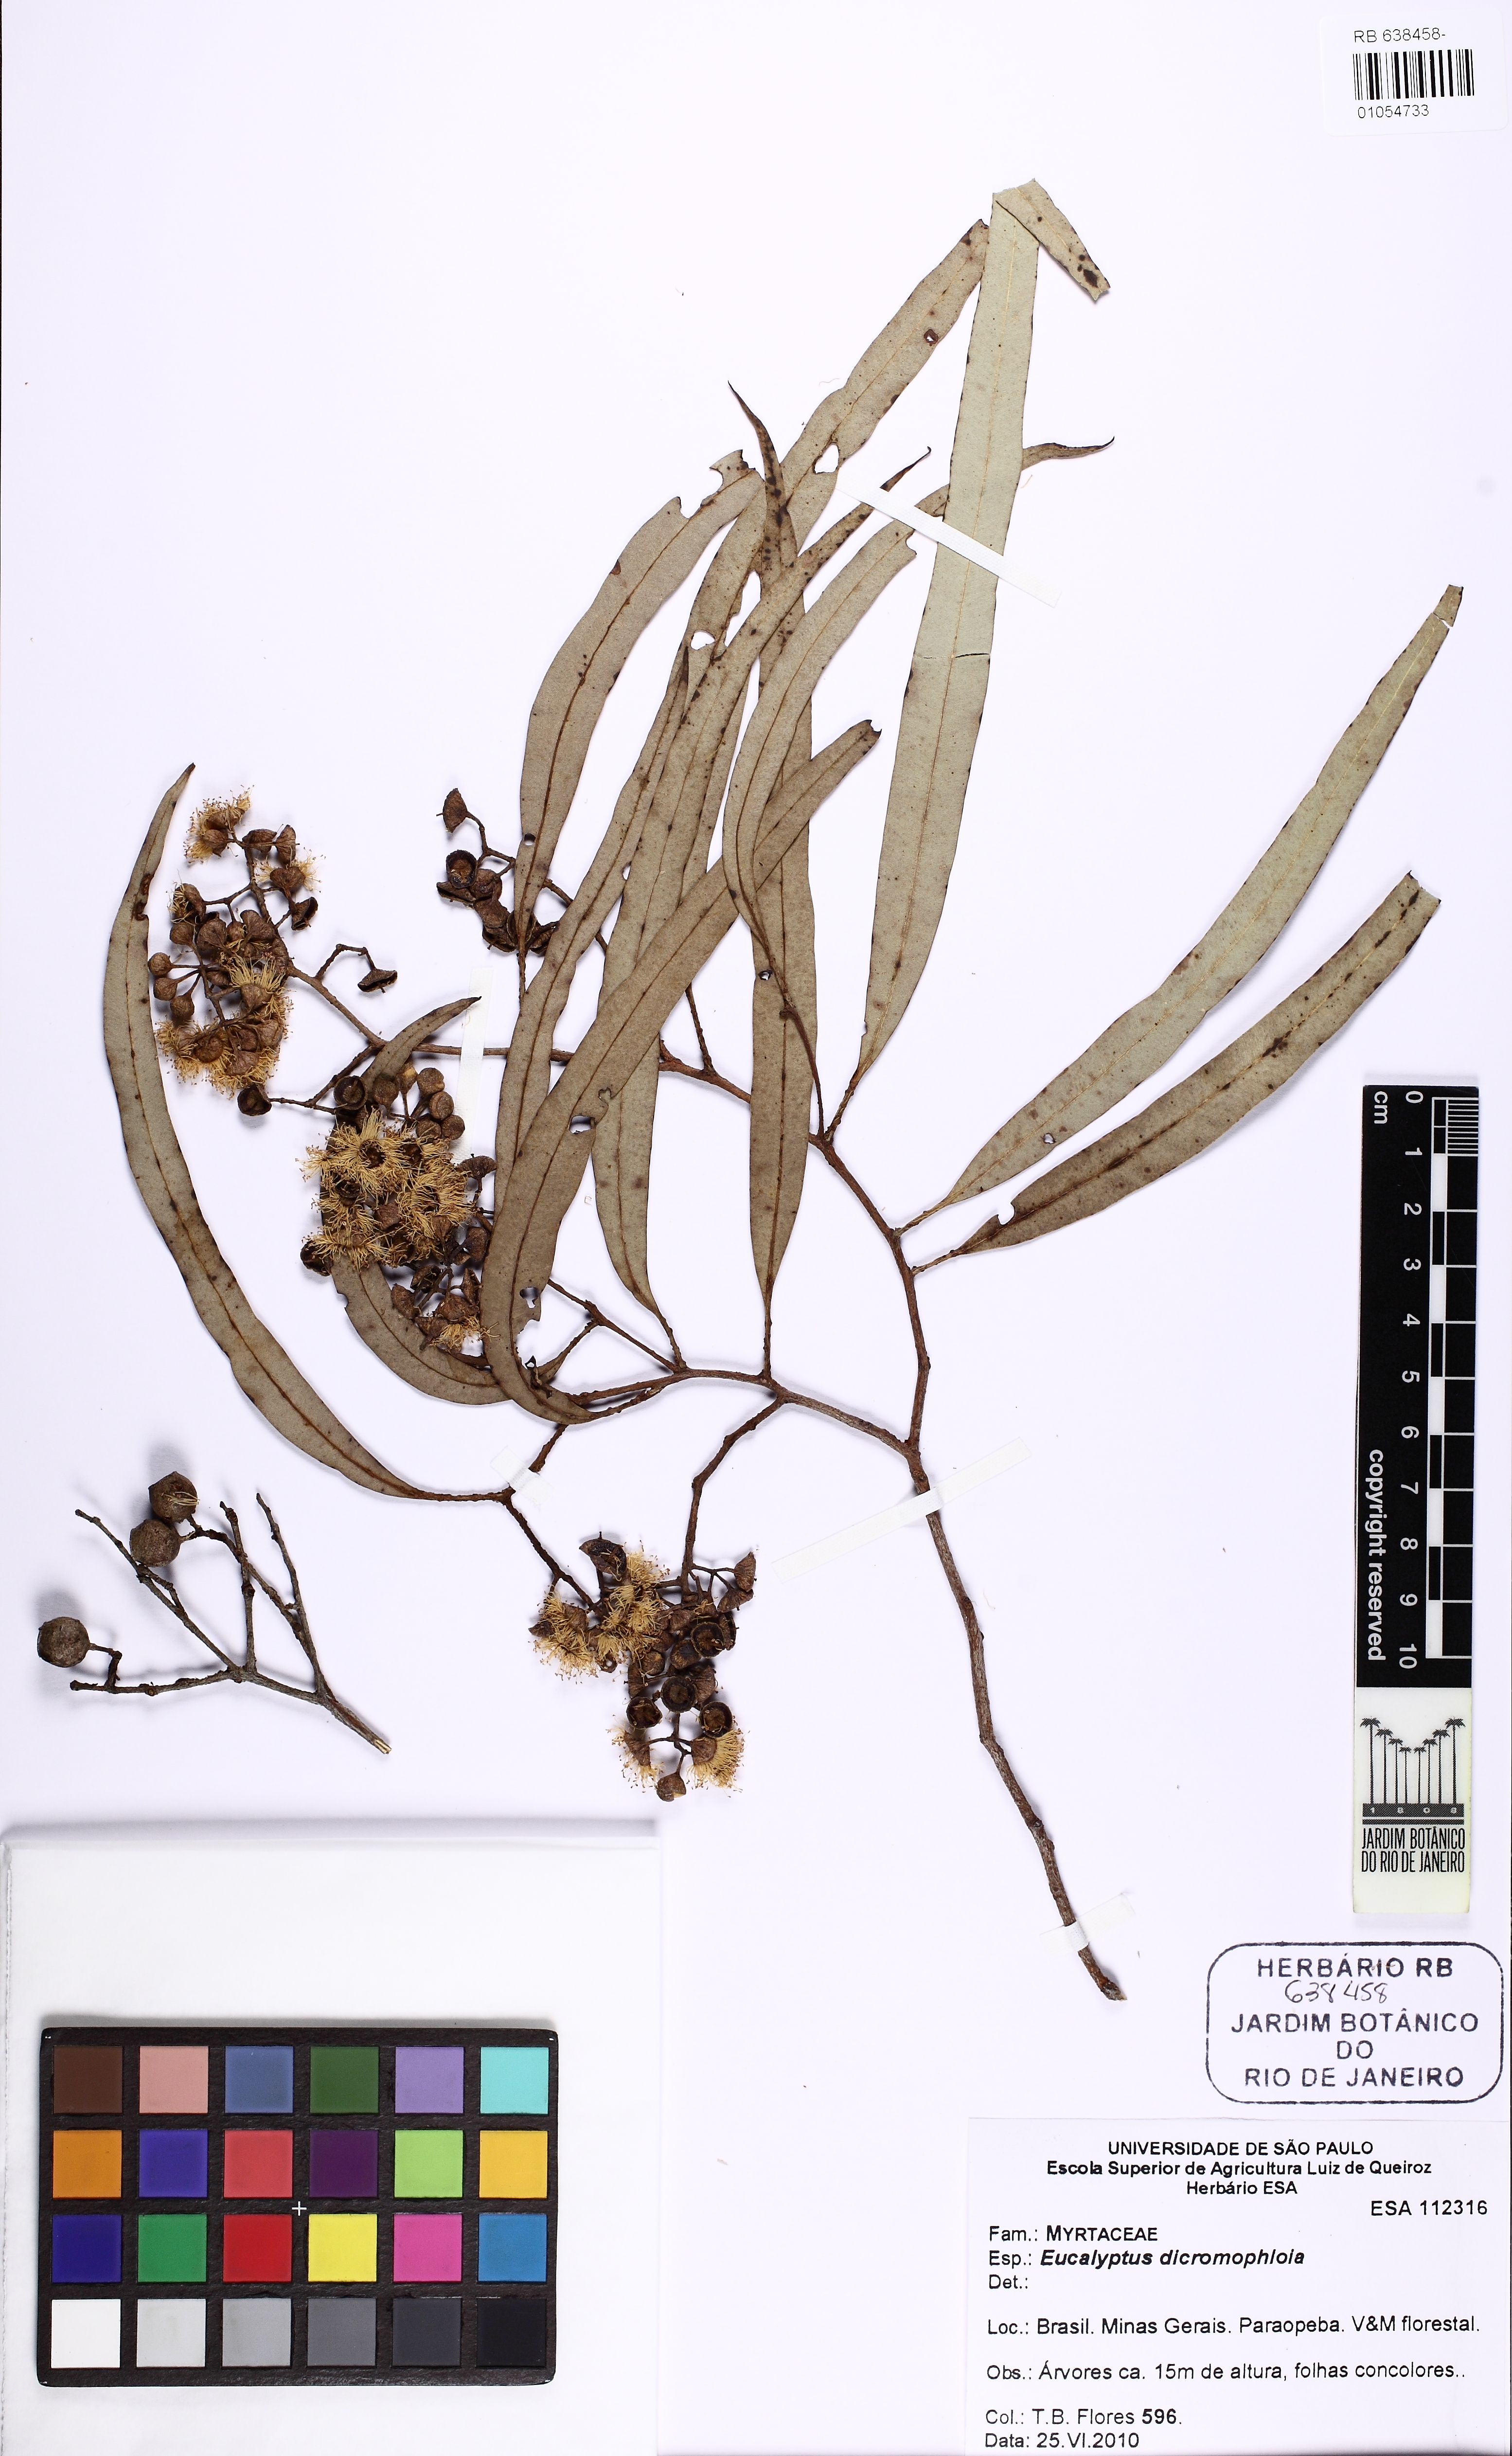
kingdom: Plantae
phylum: Tracheophyta
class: Magnoliopsida
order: Myrtales
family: Myrtaceae
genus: Corymbia
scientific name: Corymbia dichromophloia
